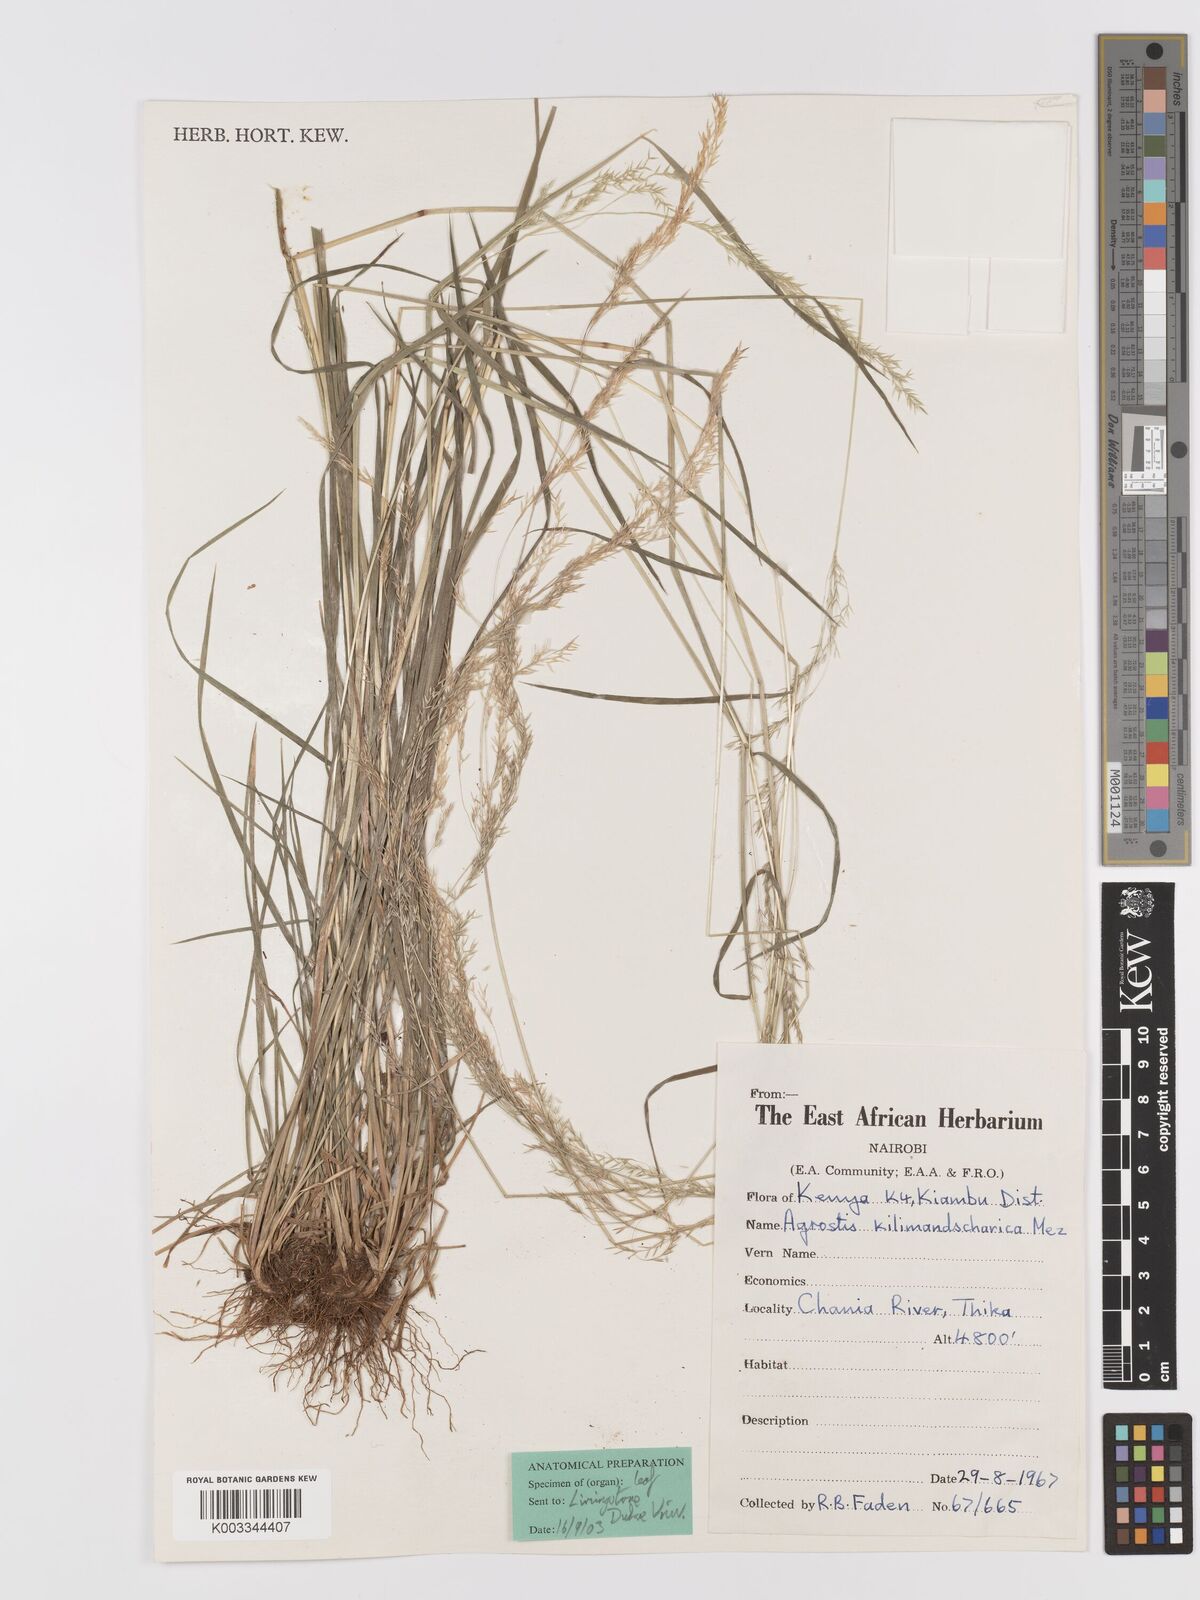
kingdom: Plantae
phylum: Tracheophyta
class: Liliopsida
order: Poales
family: Poaceae
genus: Agrostis
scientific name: Agrostis kilimandscharica
